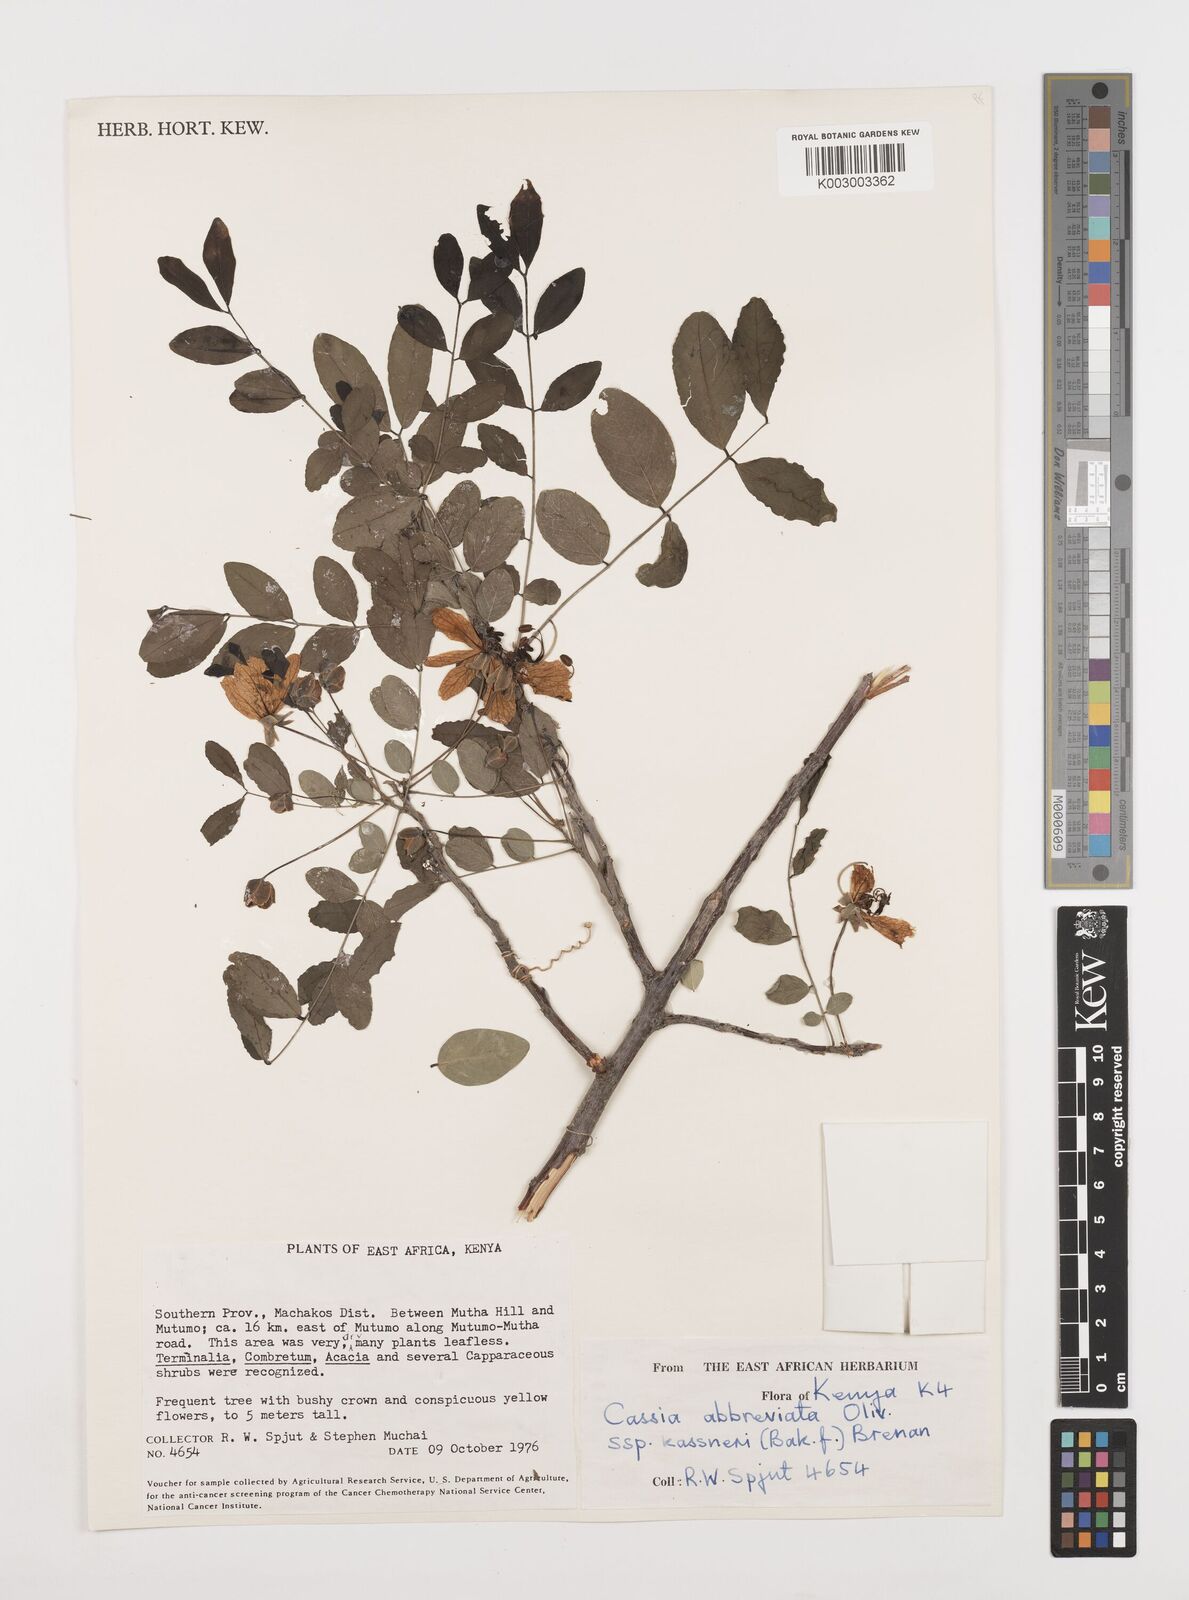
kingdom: Plantae
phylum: Tracheophyta
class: Magnoliopsida
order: Fabales
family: Fabaceae
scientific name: Fabaceae
